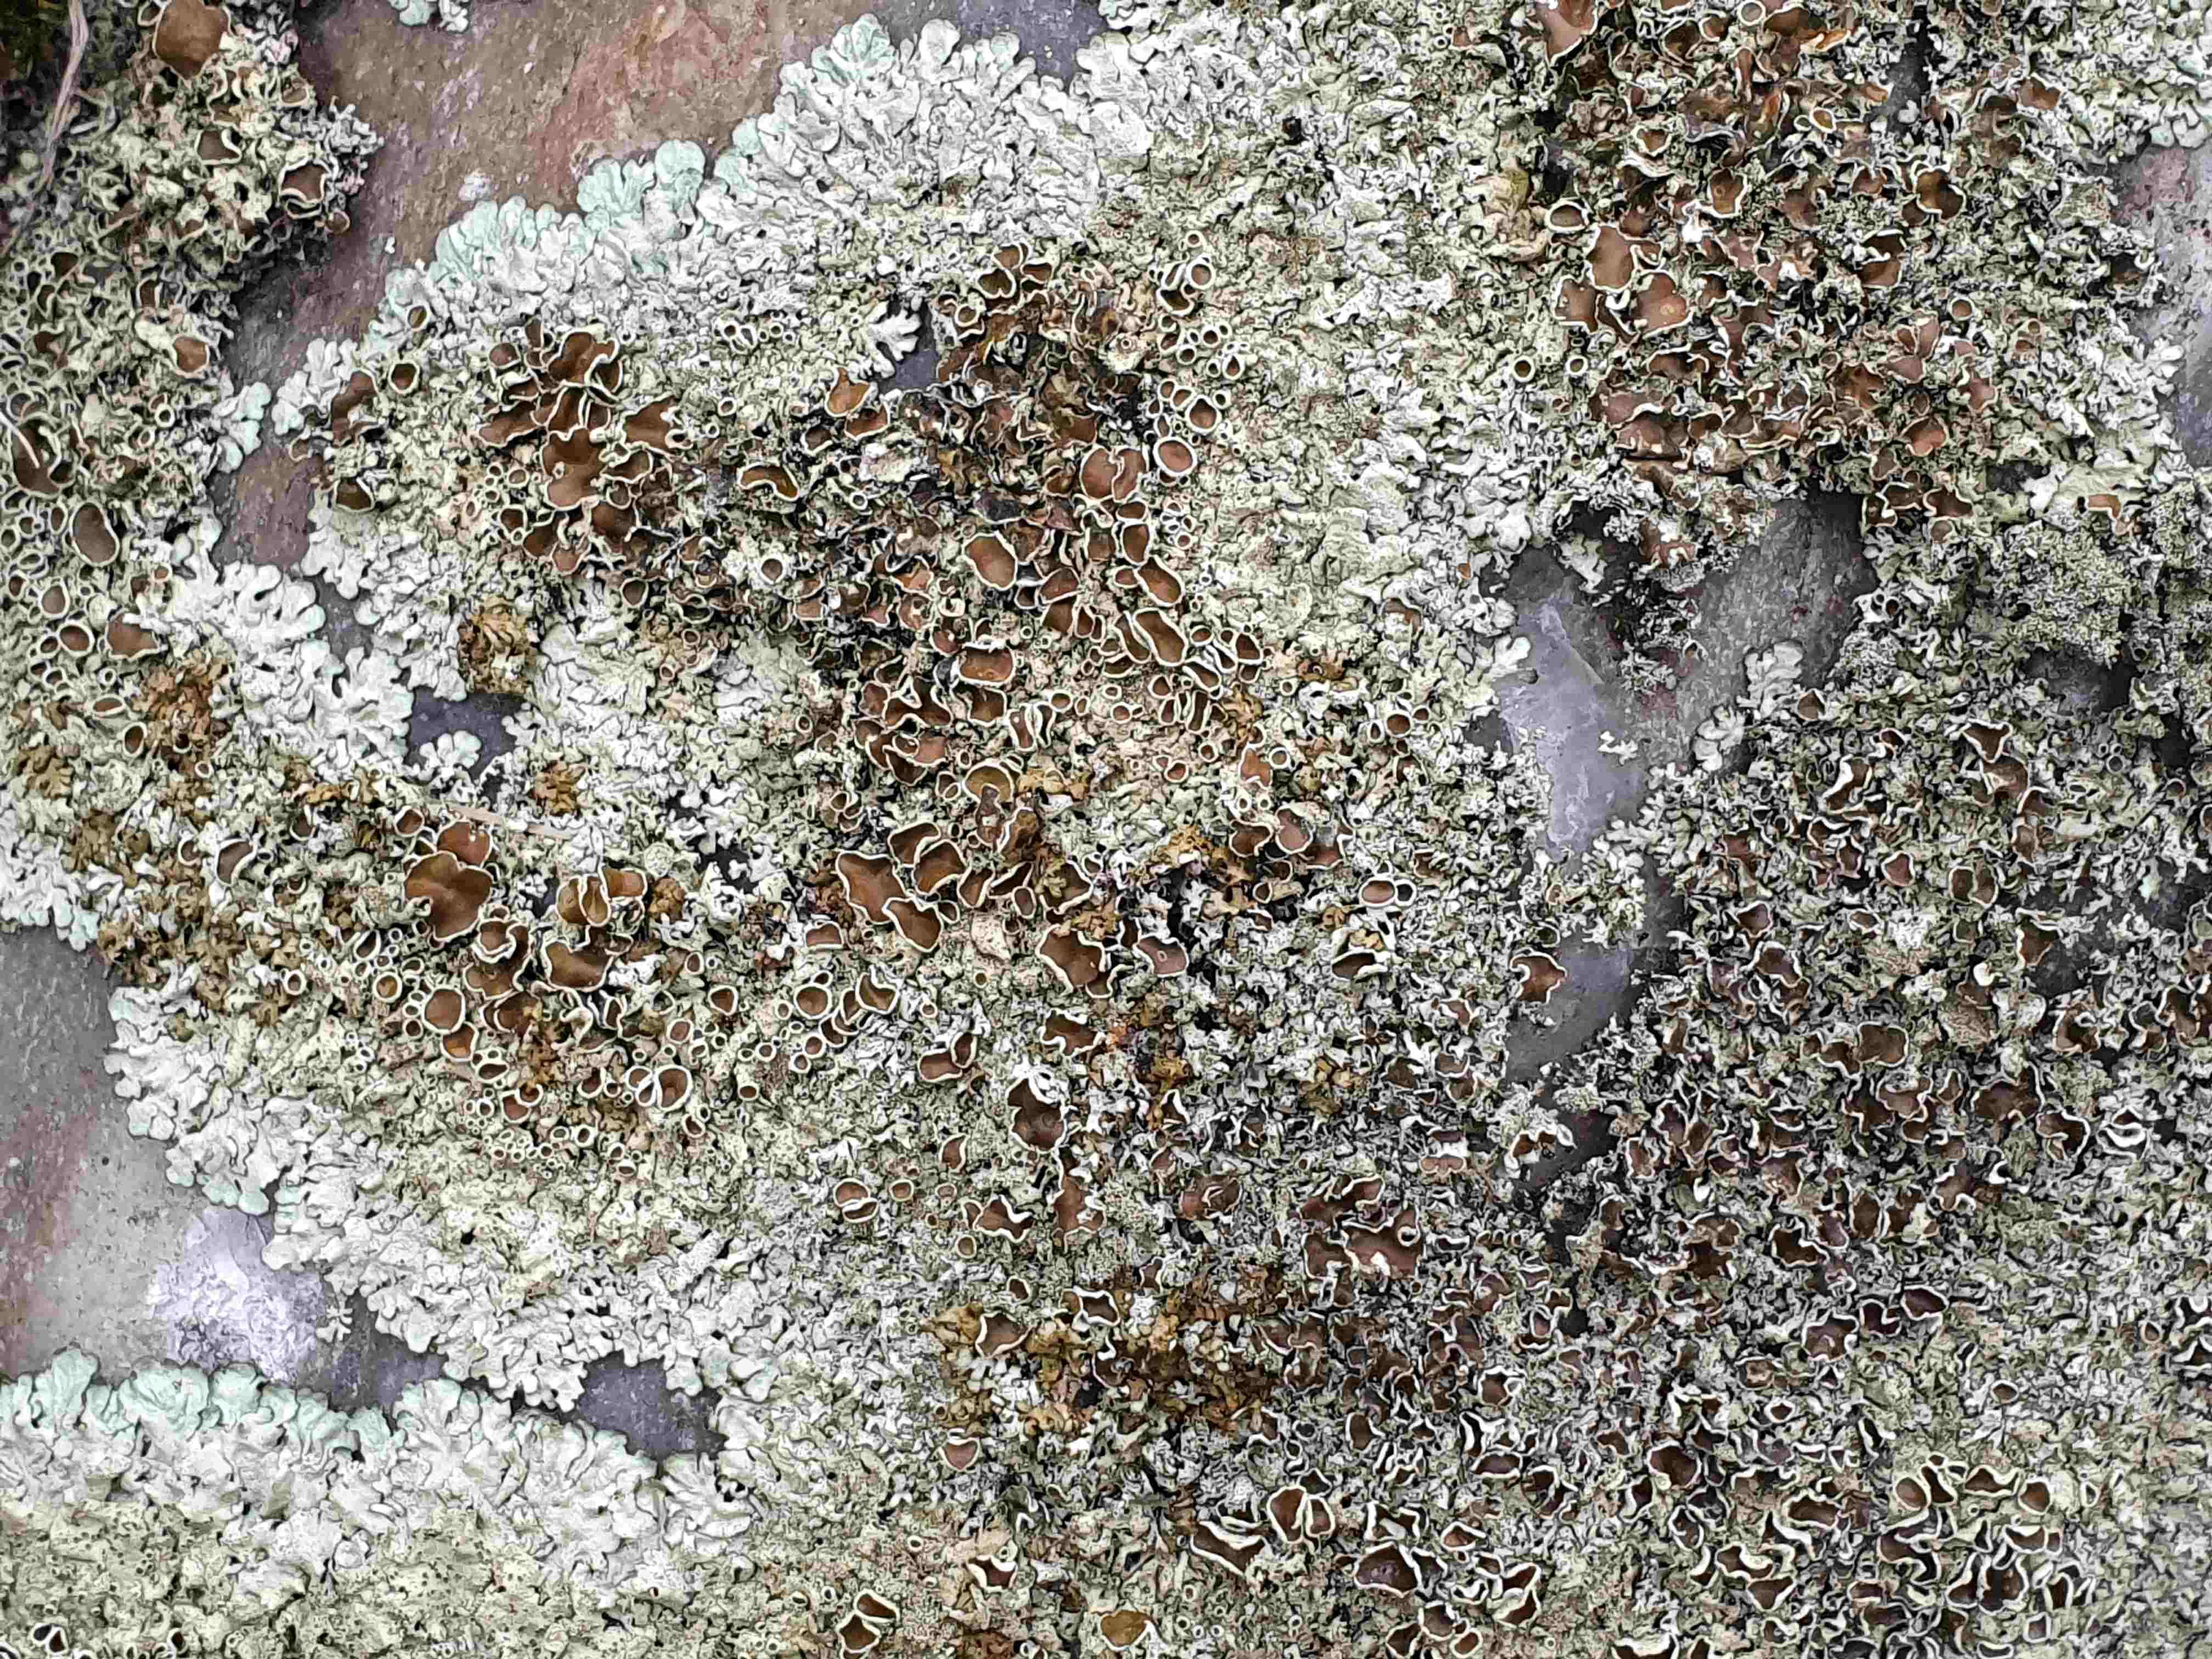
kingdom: Fungi
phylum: Ascomycota
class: Lecanoromycetes
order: Lecanorales
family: Parmeliaceae
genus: Xanthoparmelia
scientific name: Xanthoparmelia conspersa
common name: messing-skållav
